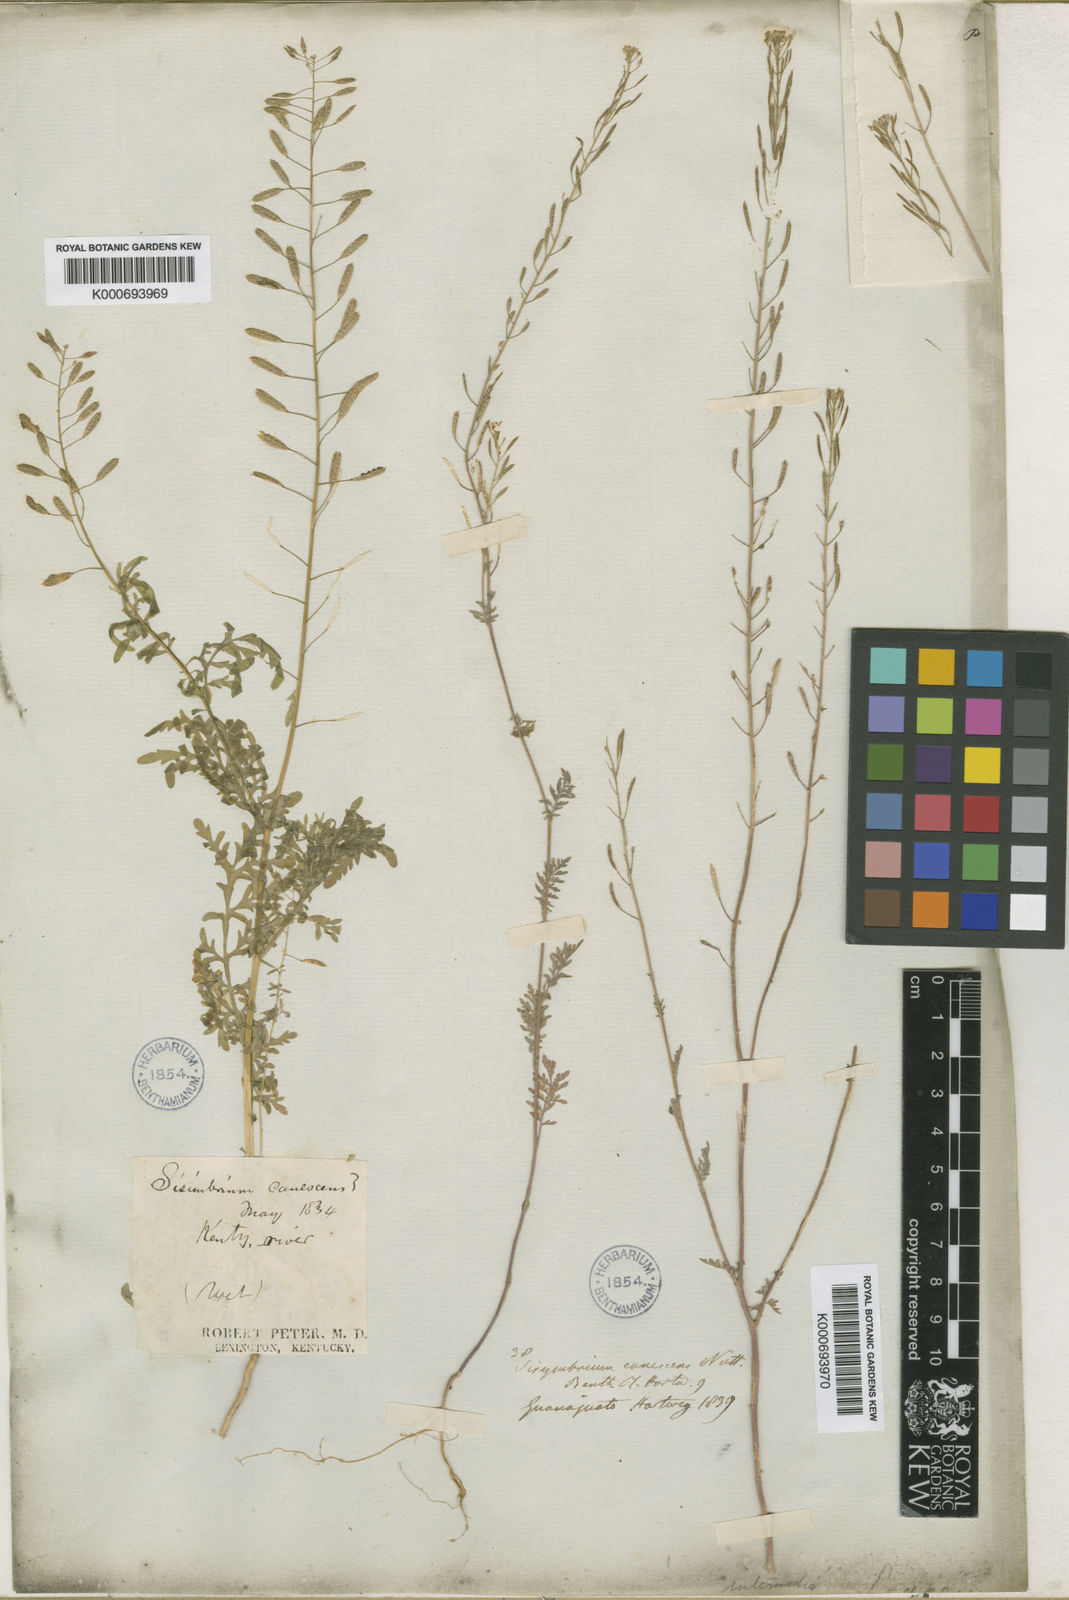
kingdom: Plantae
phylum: Tracheophyta
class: Magnoliopsida
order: Brassicales
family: Brassicaceae
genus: Sisymbrium
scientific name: Sisymbrium
